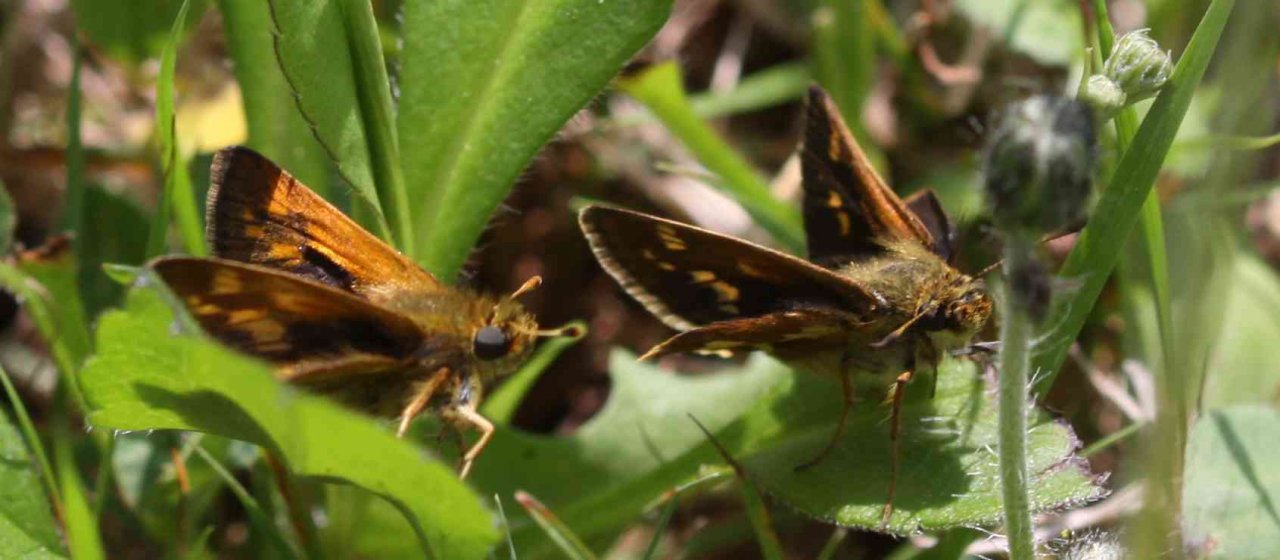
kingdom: Animalia
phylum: Arthropoda
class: Insecta
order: Lepidoptera
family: Hesperiidae
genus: Polites
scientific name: Polites coras
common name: Peck's Skipper
